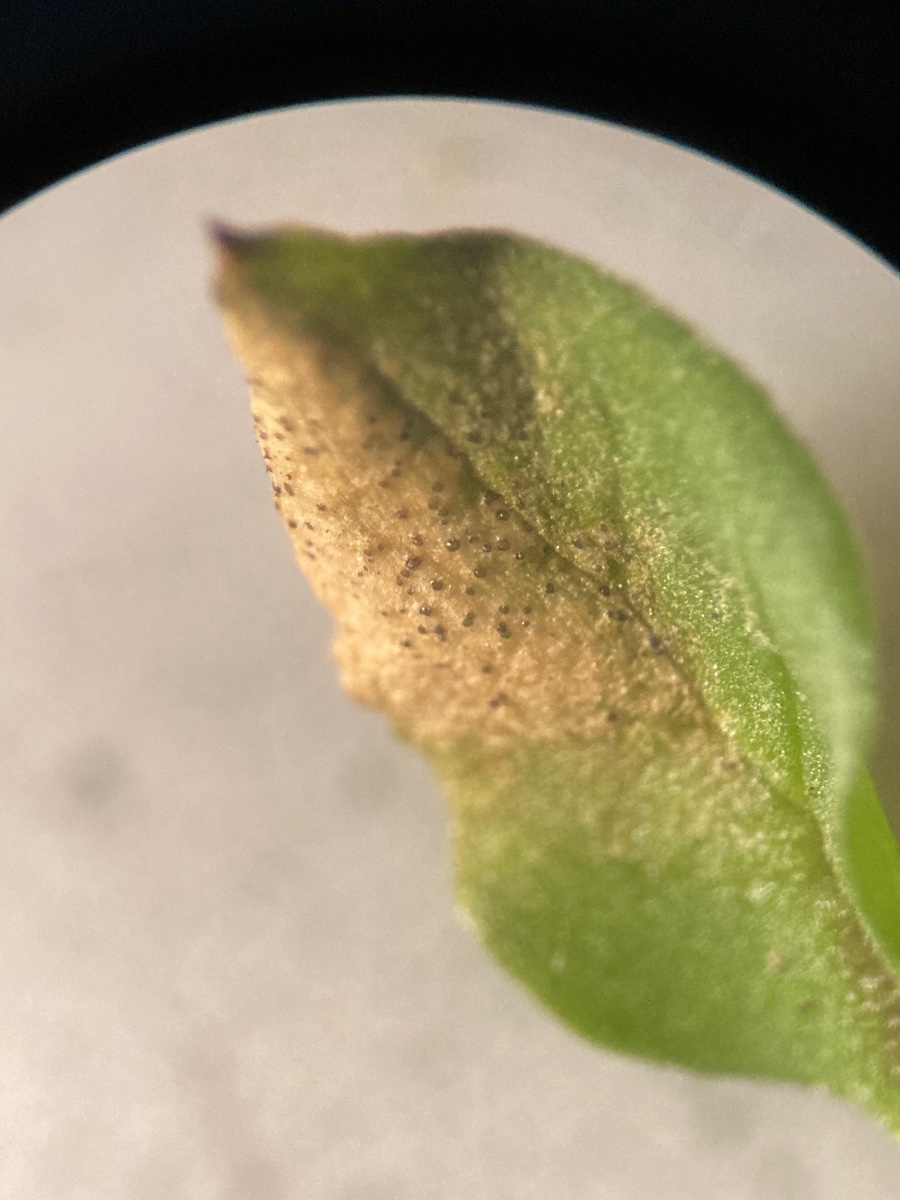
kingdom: Fungi
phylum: Ascomycota
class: Dothideomycetes
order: Mycosphaerellales
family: Mycosphaerellaceae
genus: Septoria
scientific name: Septoria stellariae
